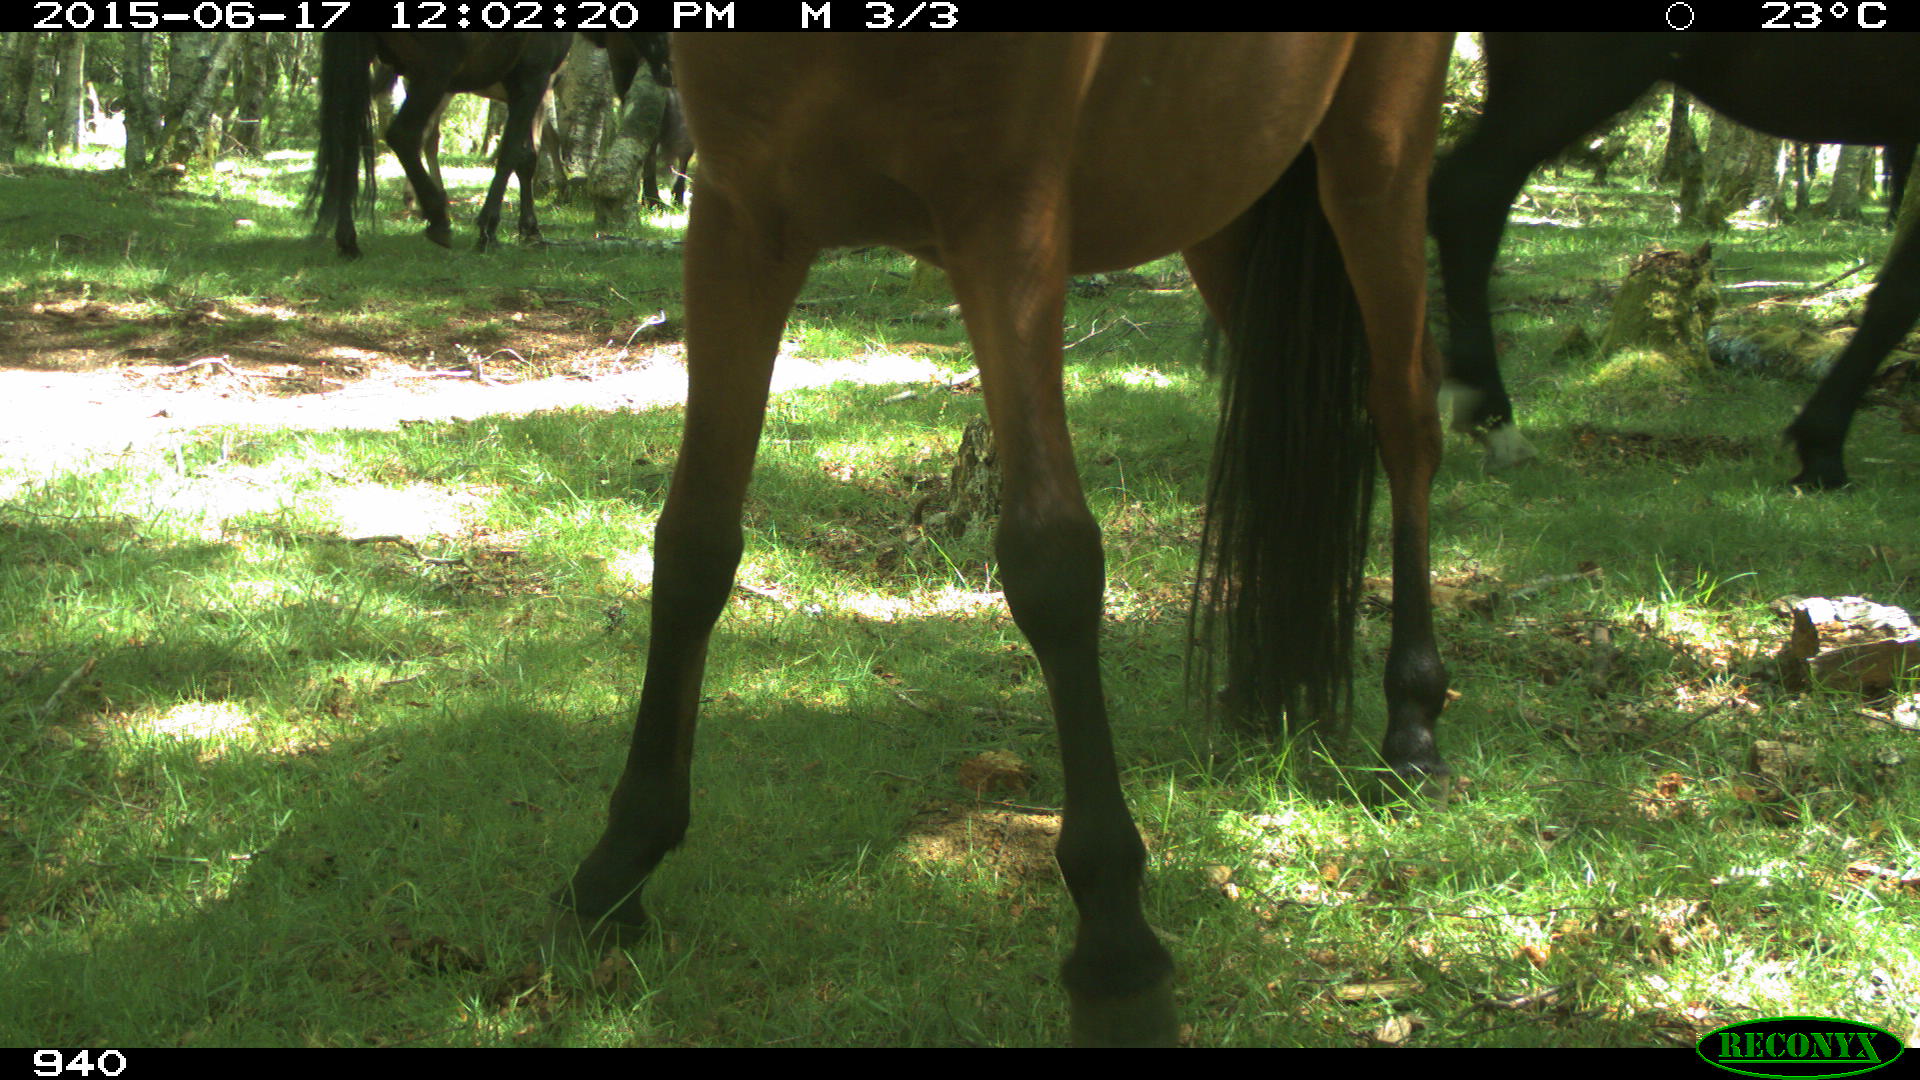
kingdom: Animalia
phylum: Chordata
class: Mammalia
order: Perissodactyla
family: Equidae
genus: Equus
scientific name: Equus caballus
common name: Horse
